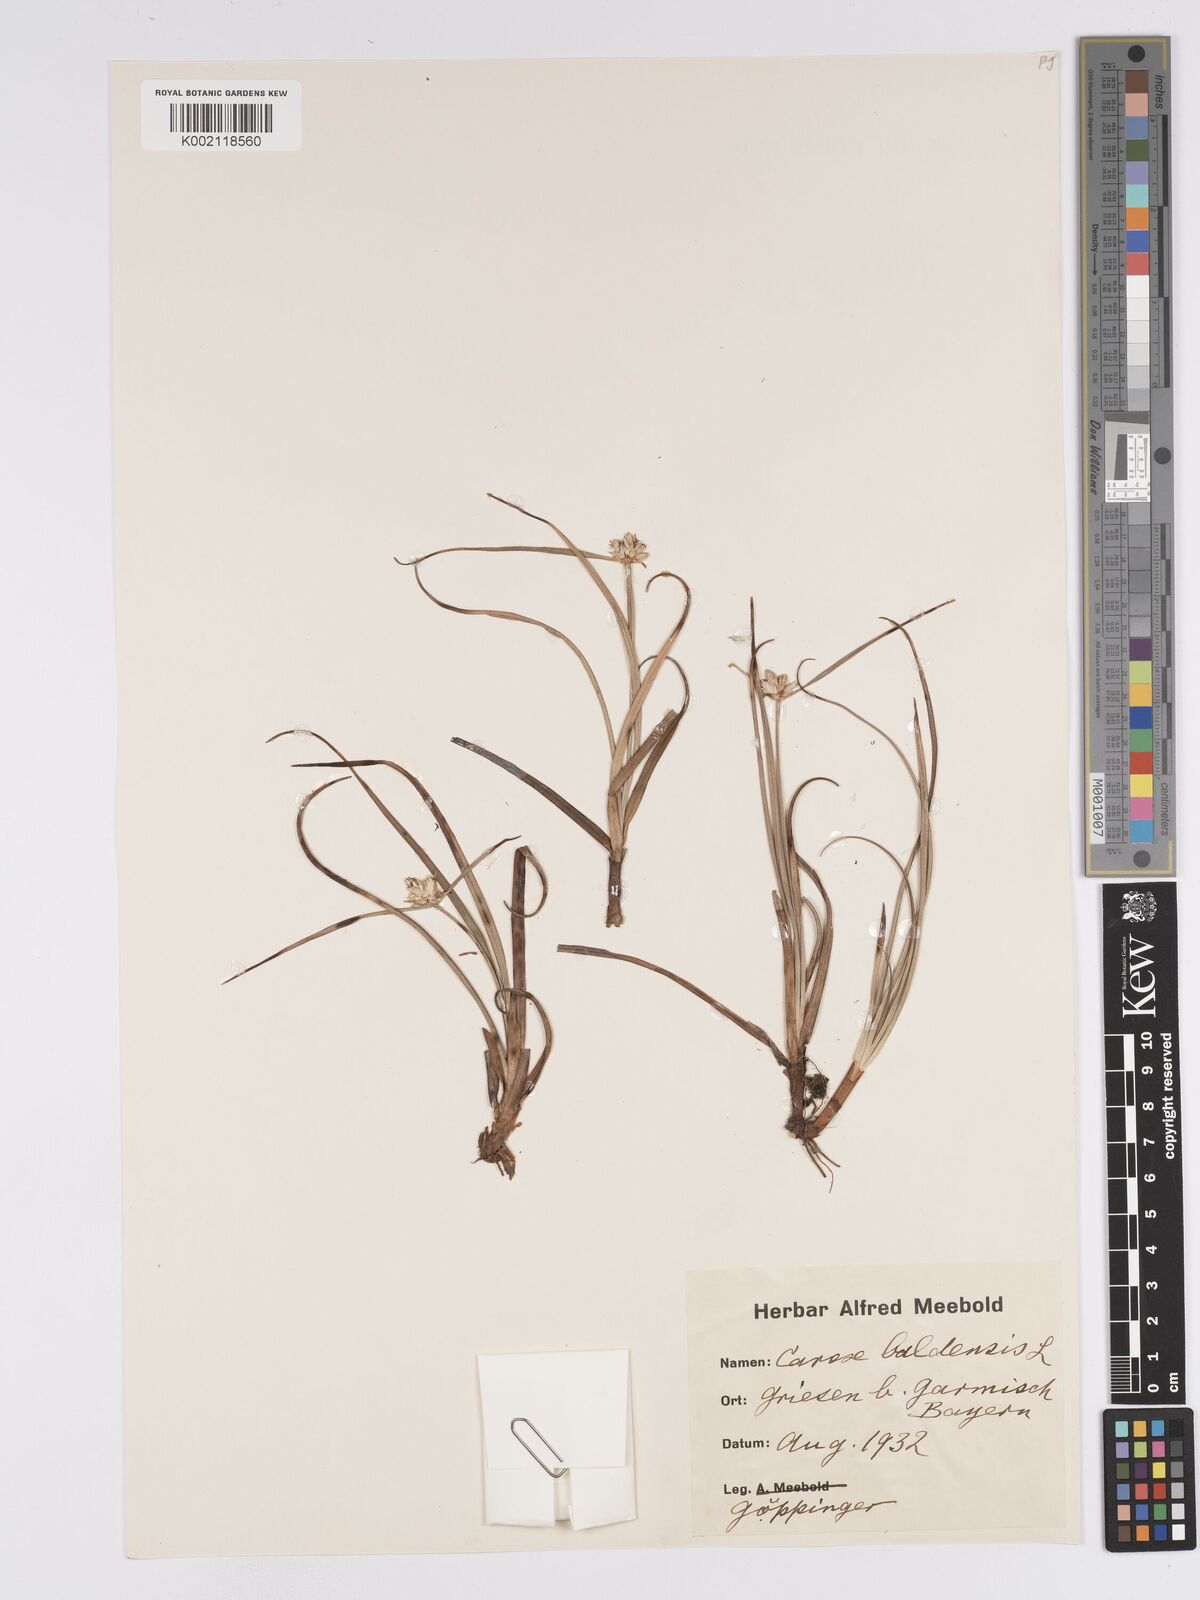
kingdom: Plantae
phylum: Tracheophyta
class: Liliopsida
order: Poales
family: Cyperaceae
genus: Carex
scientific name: Carex baldensis
